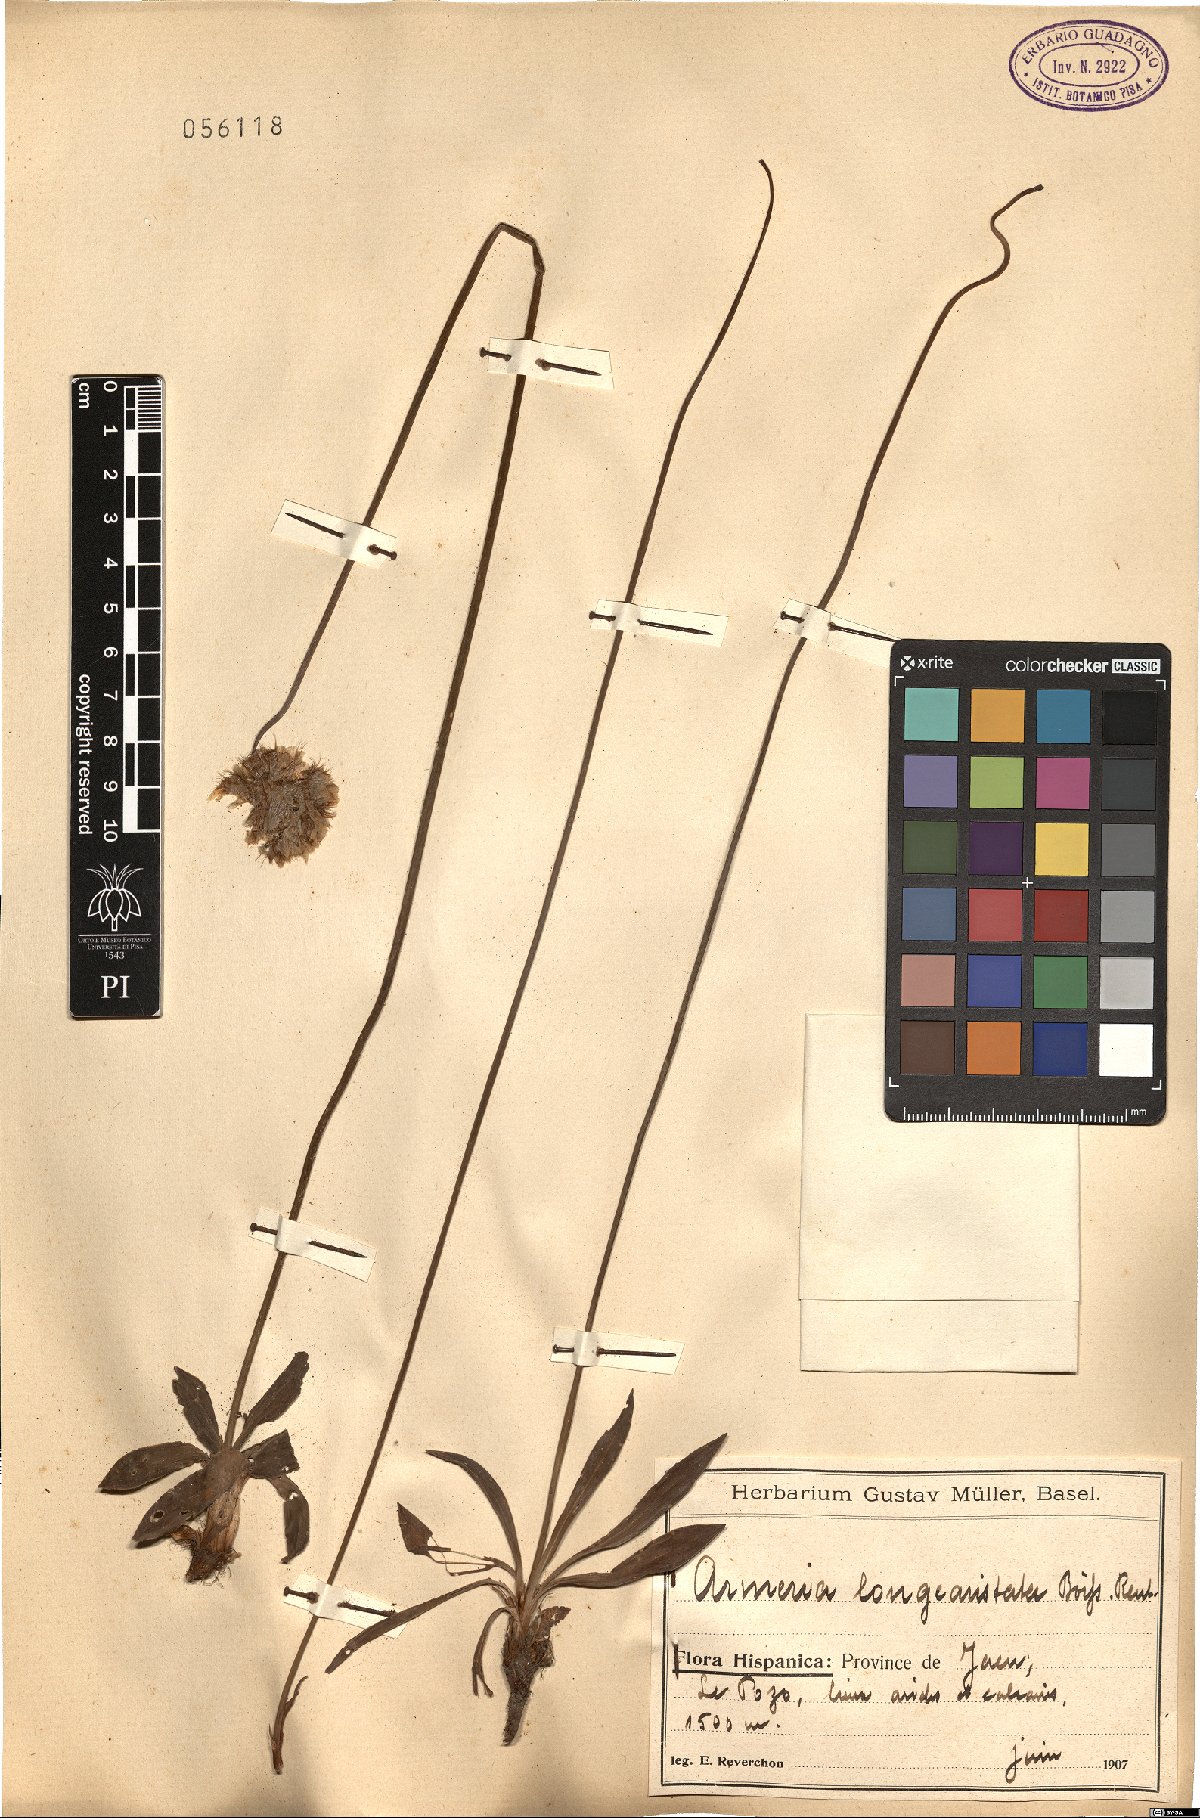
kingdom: Plantae
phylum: Tracheophyta
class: Magnoliopsida
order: Caryophyllales
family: Plumbaginaceae
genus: Armeria
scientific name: Armeria villosa
